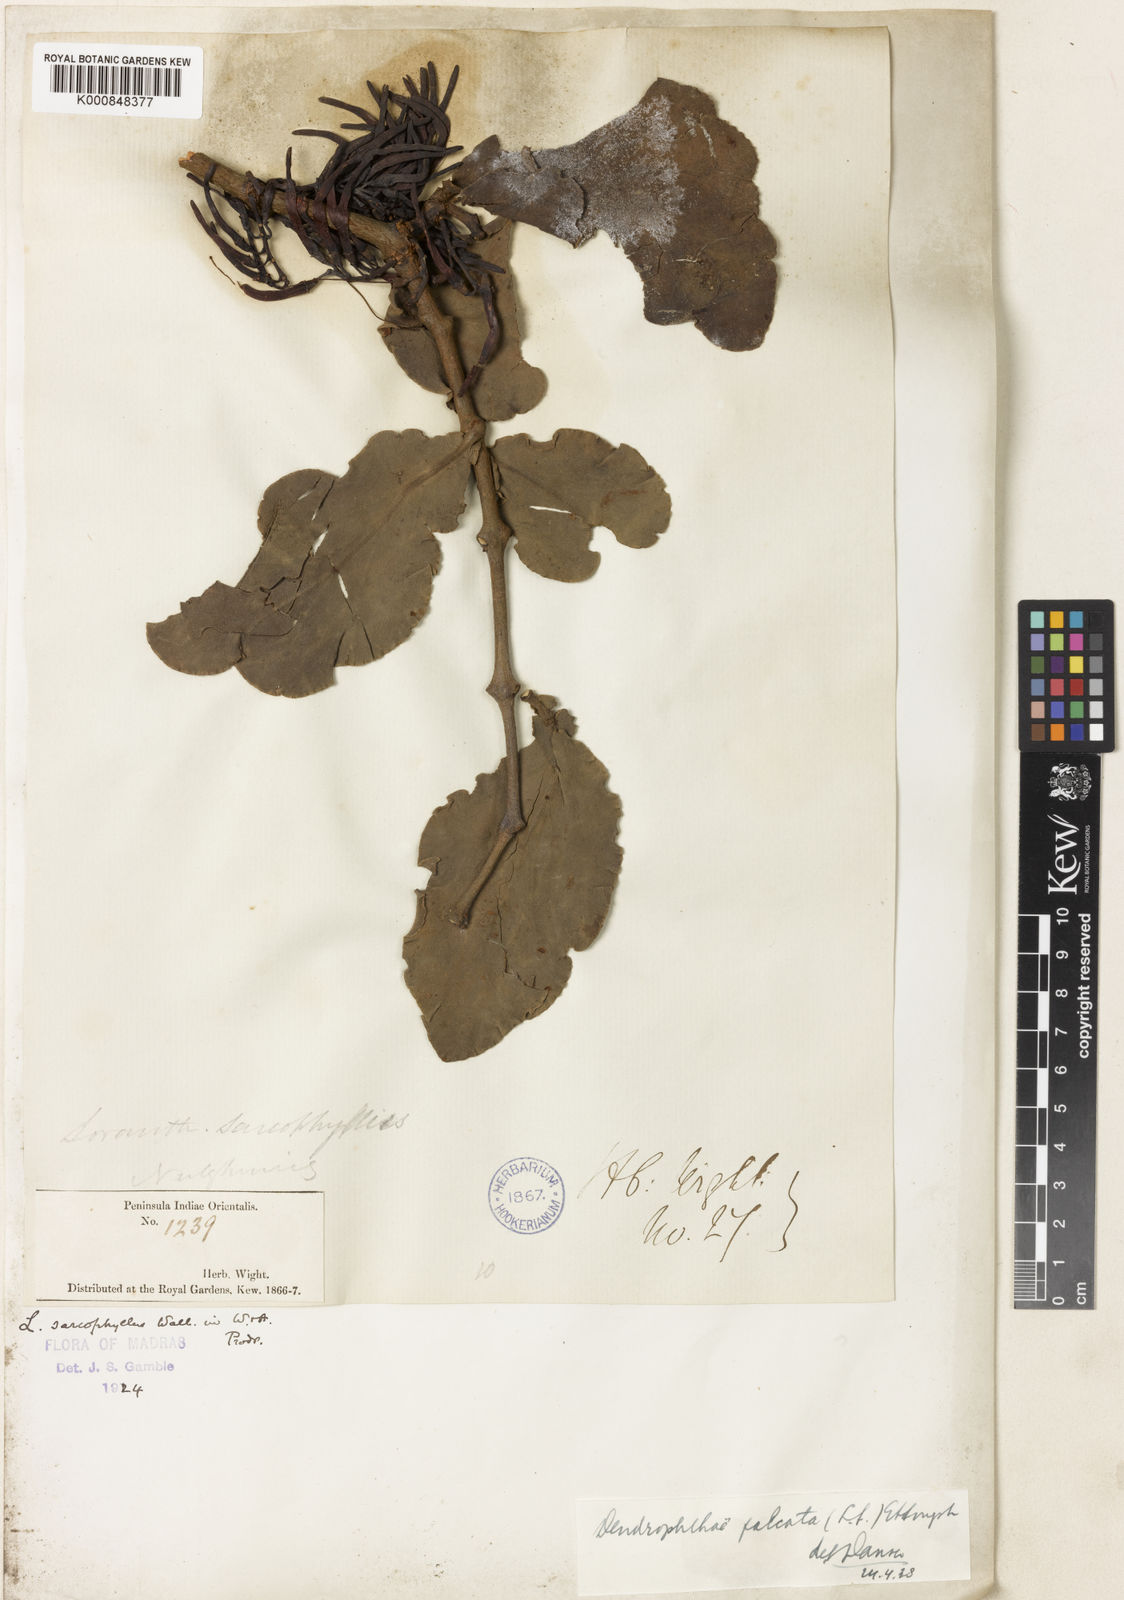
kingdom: Plantae
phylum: Tracheophyta
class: Magnoliopsida
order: Santalales
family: Loranthaceae
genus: Dendrophthoe
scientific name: Dendrophthoe falcata
